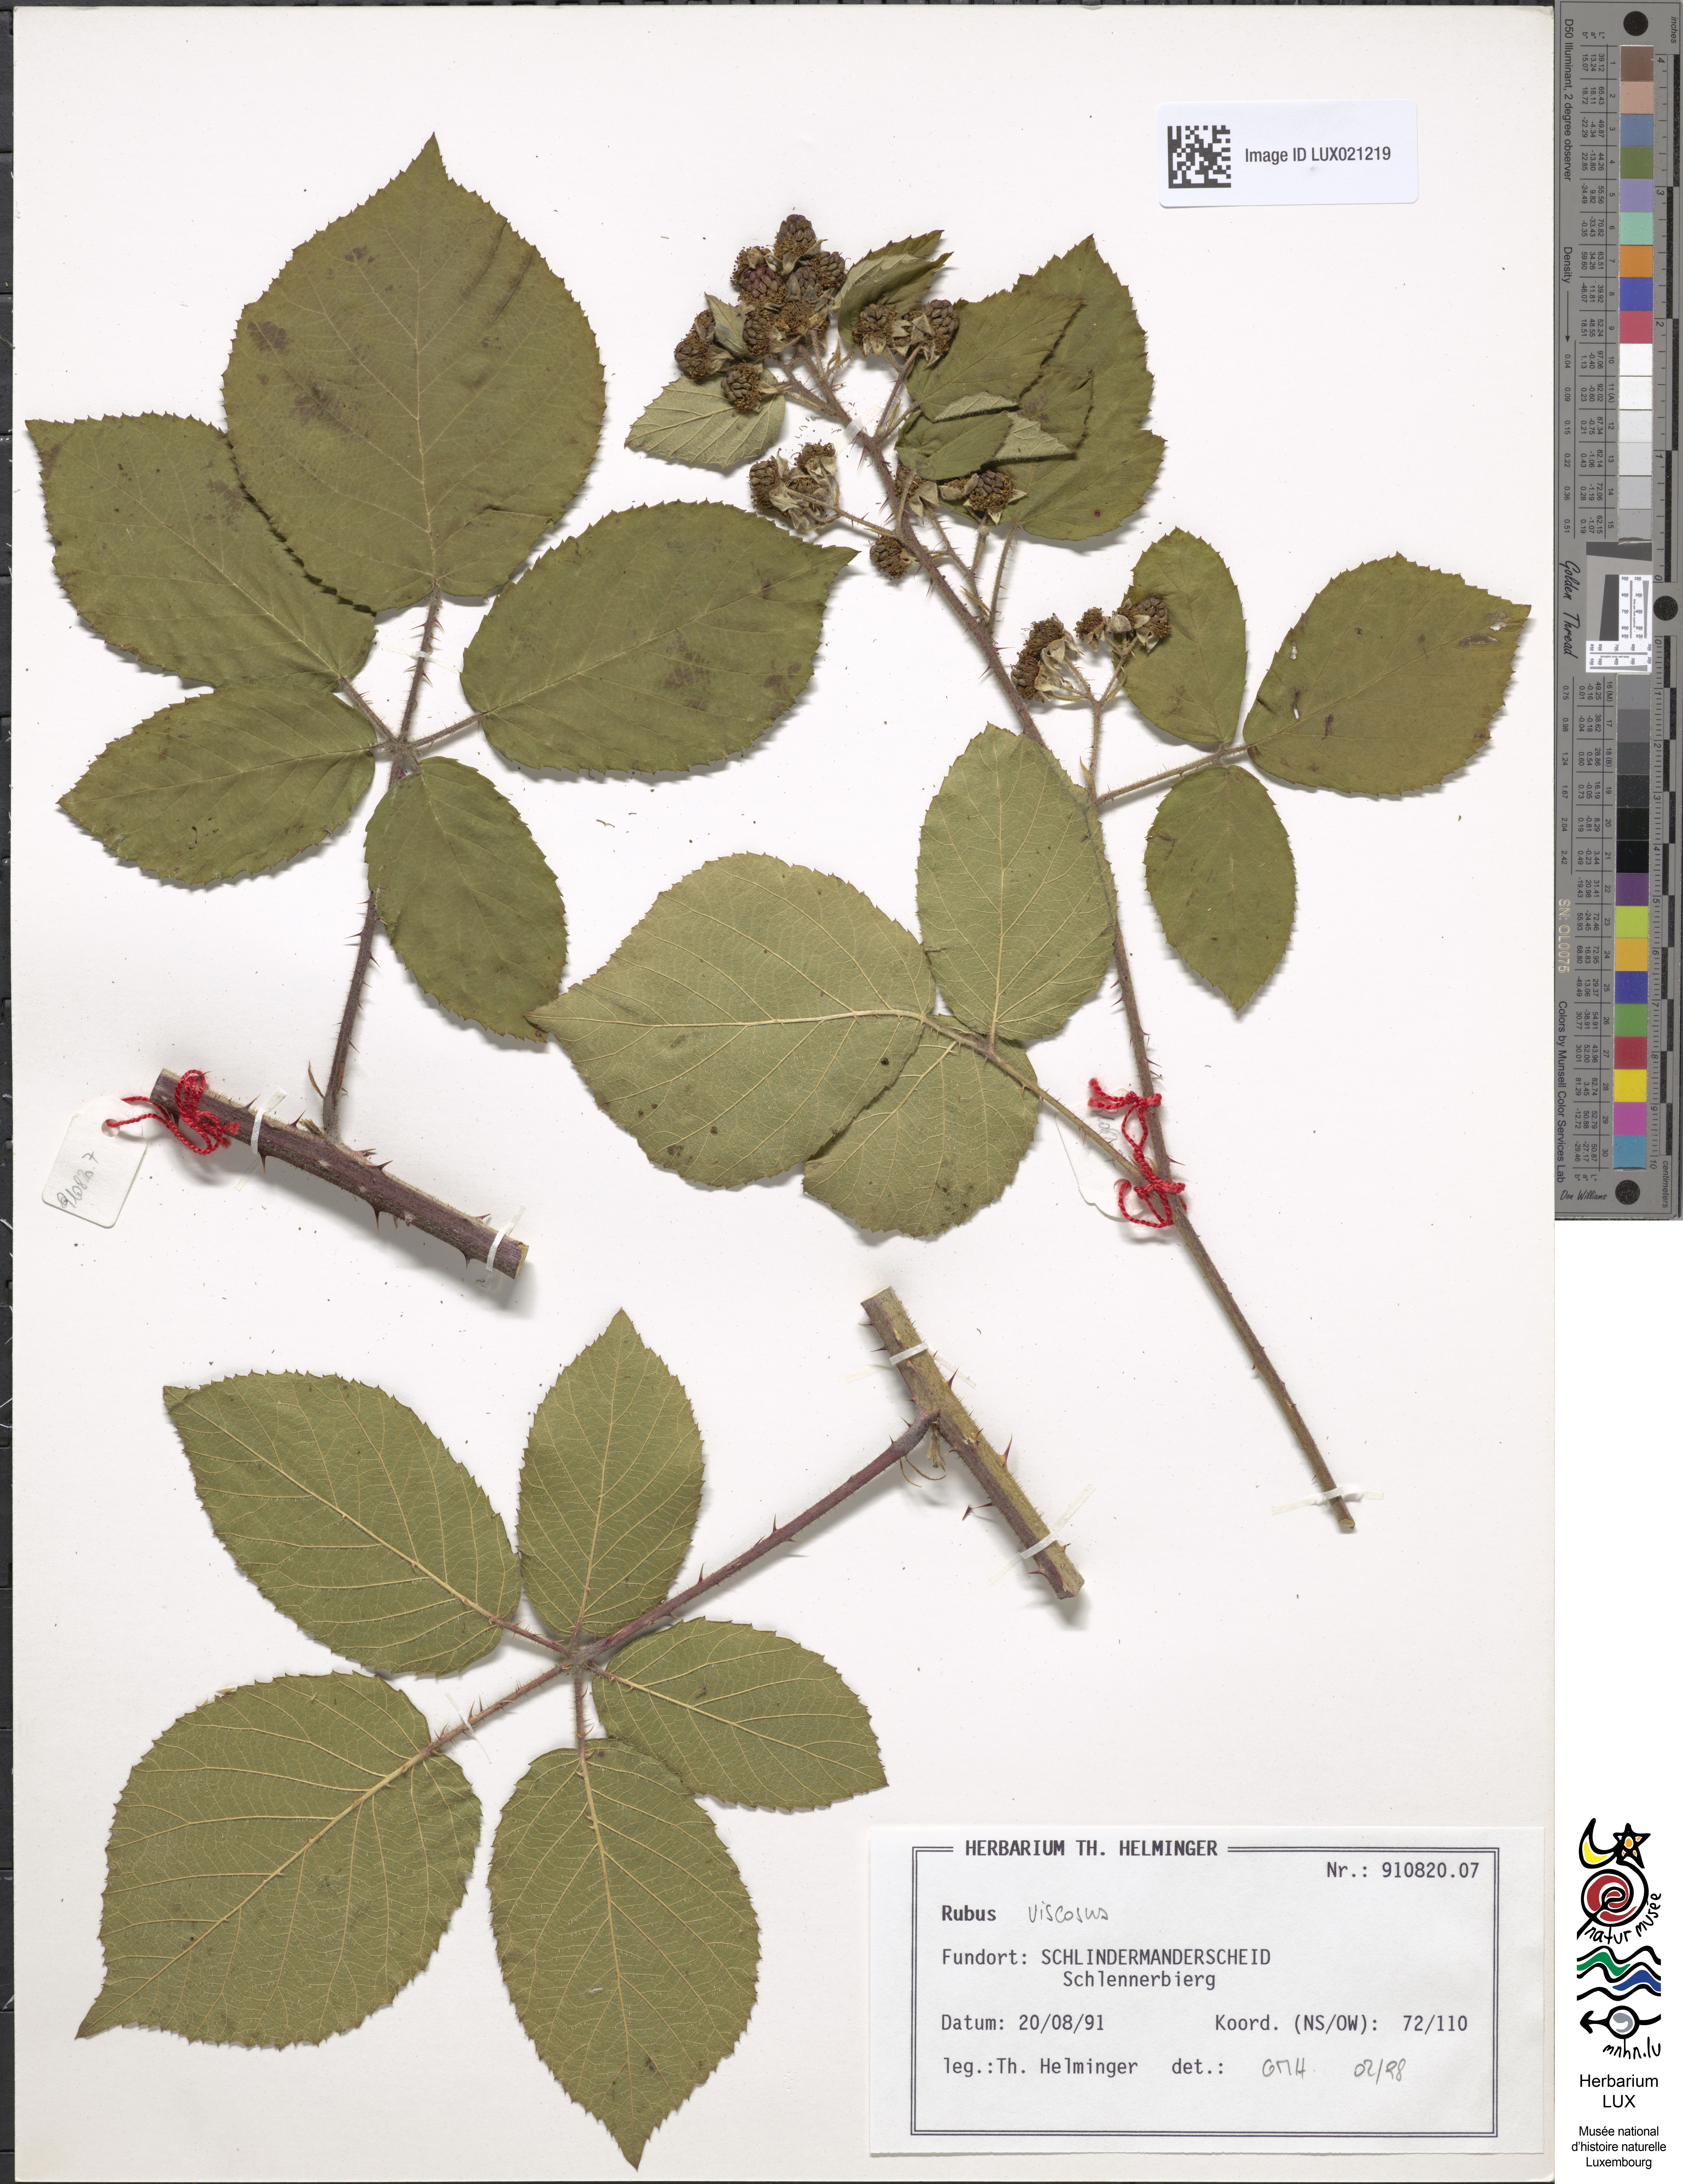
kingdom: Plantae
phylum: Tracheophyta
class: Magnoliopsida
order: Rosales
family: Rosaceae
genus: Rubus
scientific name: Rubus viscosus
